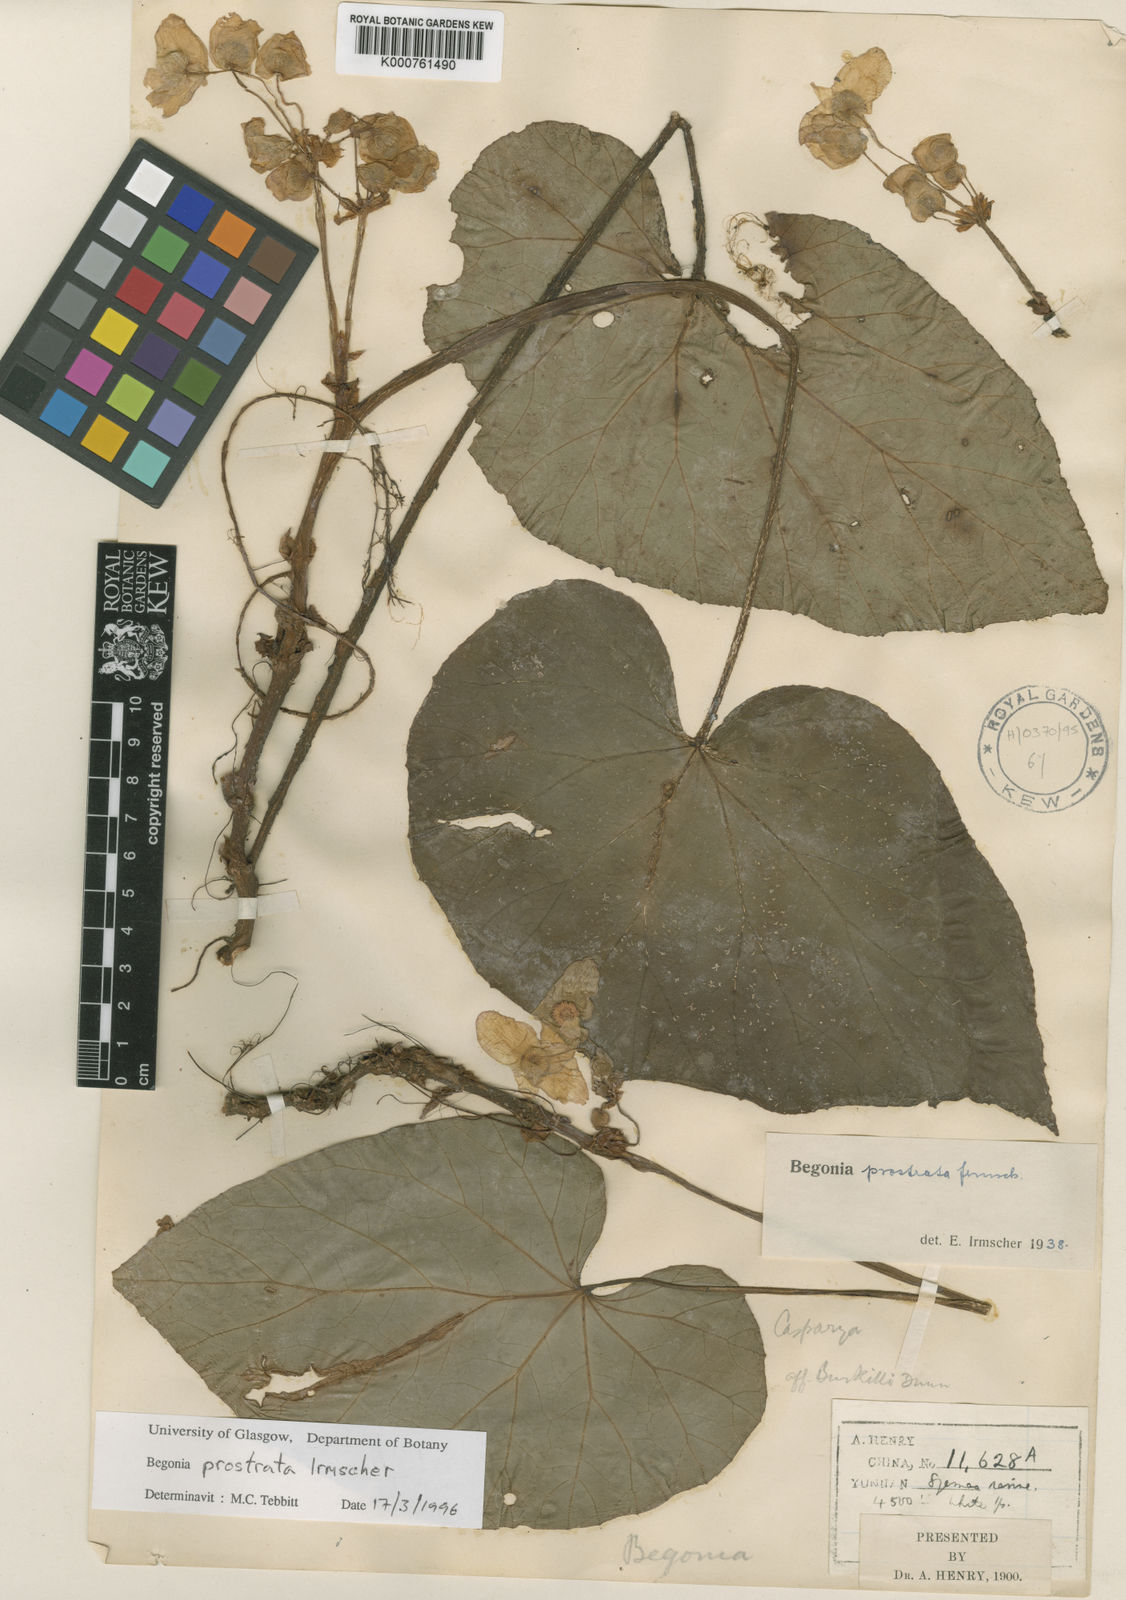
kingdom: Plantae
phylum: Tracheophyta
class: Magnoliopsida
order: Cucurbitales
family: Begoniaceae
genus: Begonia
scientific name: Begonia handelii
